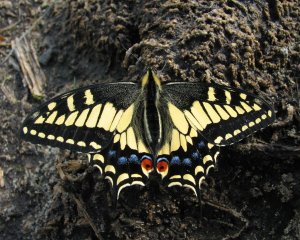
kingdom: Animalia
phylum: Arthropoda
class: Insecta
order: Lepidoptera
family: Papilionidae
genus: Papilio
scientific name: Papilio zelicaon
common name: Anise Swallowtail
